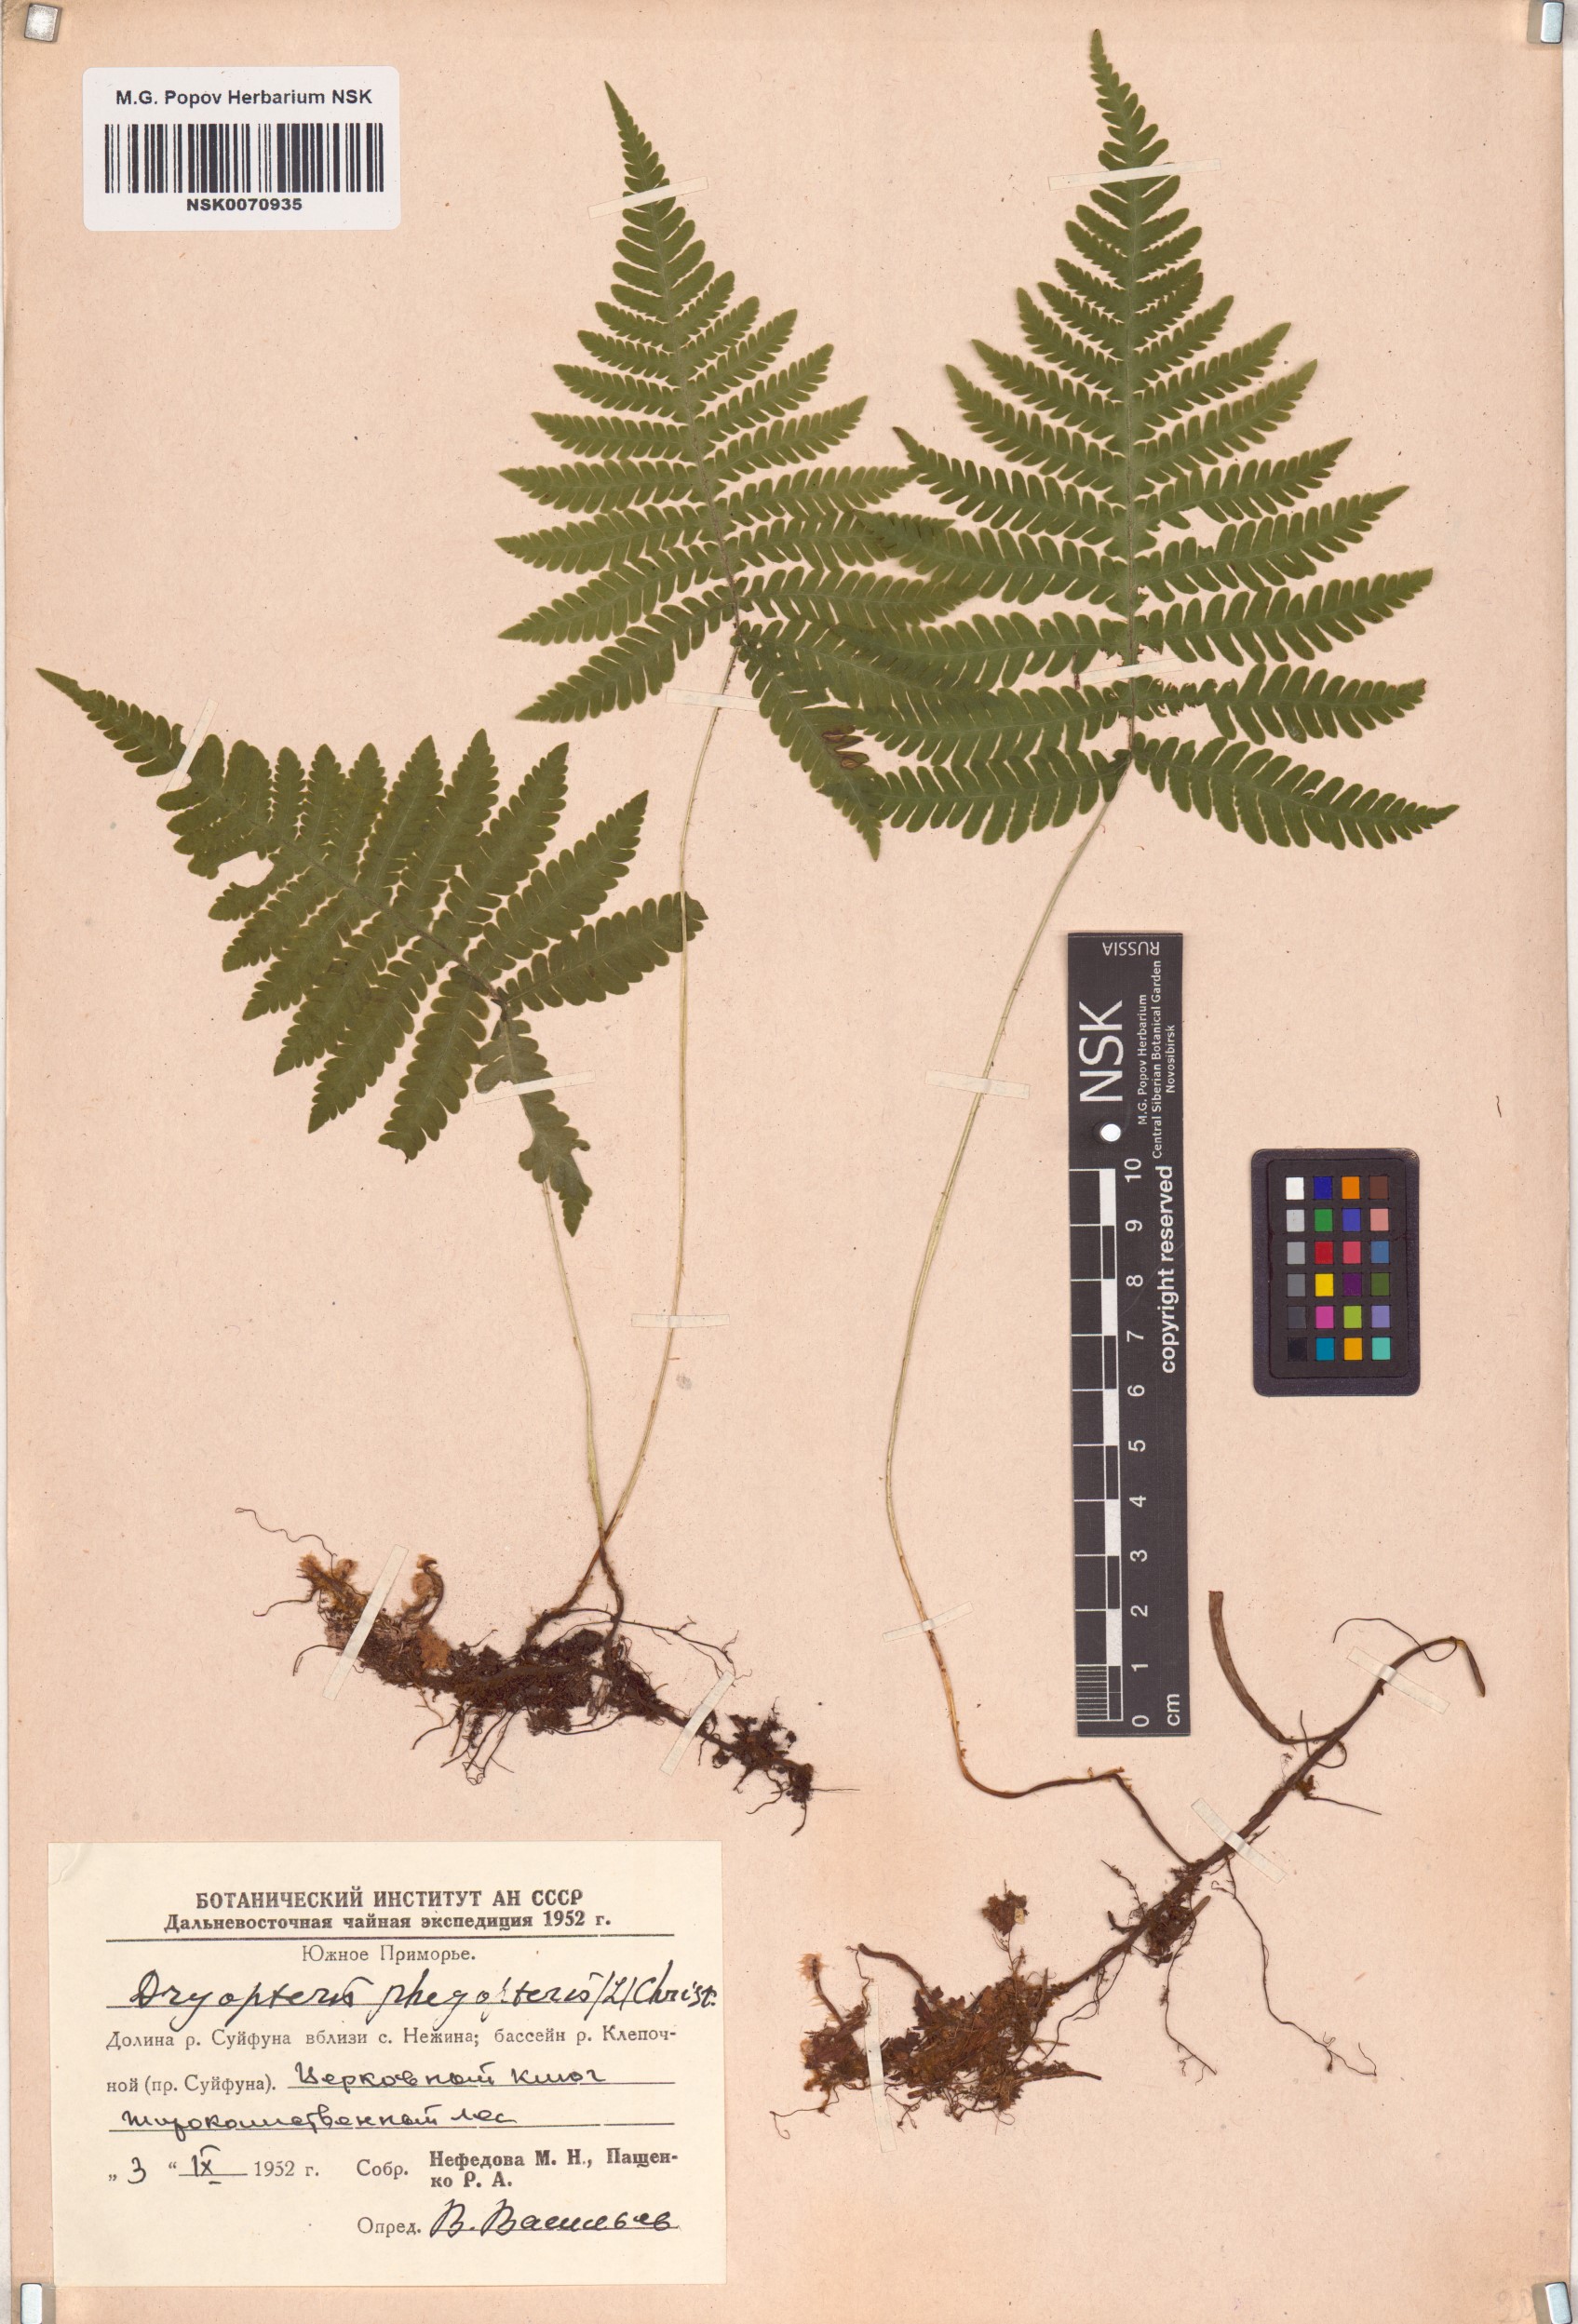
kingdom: Plantae
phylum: Tracheophyta
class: Polypodiopsida
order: Polypodiales
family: Thelypteridaceae
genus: Phegopteris
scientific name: Phegopteris connectilis
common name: Beech fern
